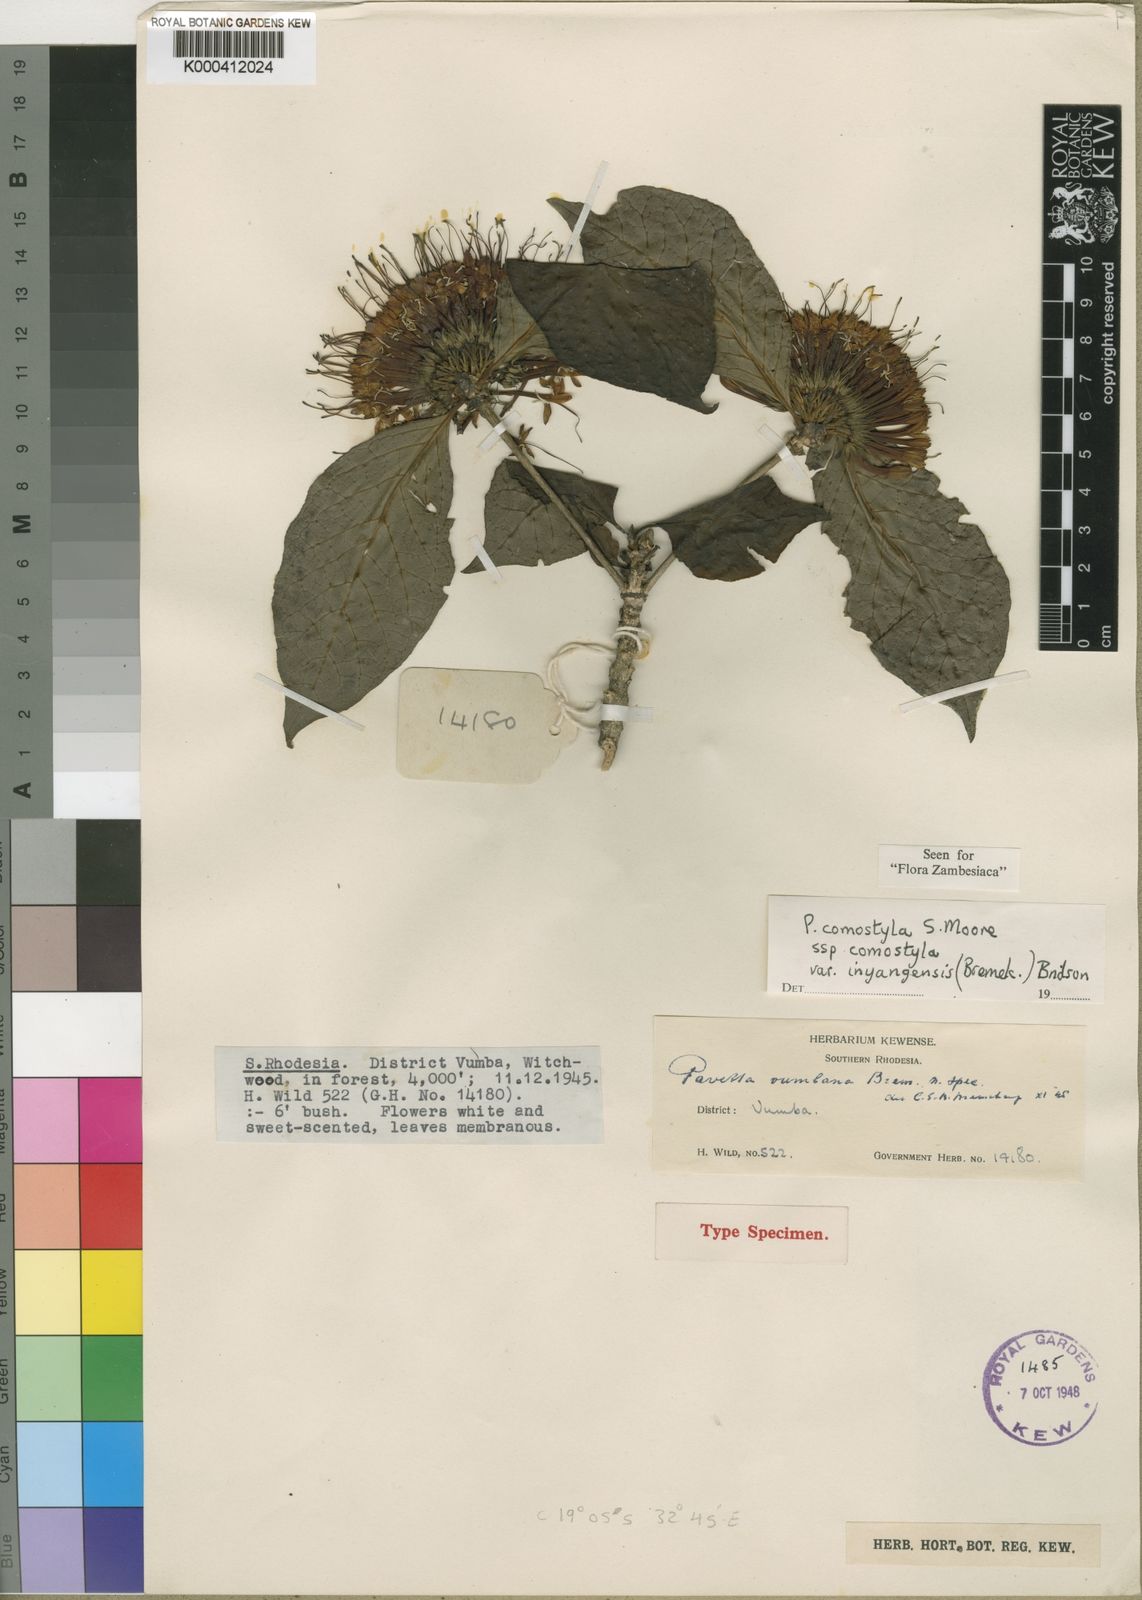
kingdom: Plantae
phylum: Tracheophyta
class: Magnoliopsida
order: Gentianales
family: Rubiaceae
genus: Pavetta
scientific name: Pavetta comostyla
